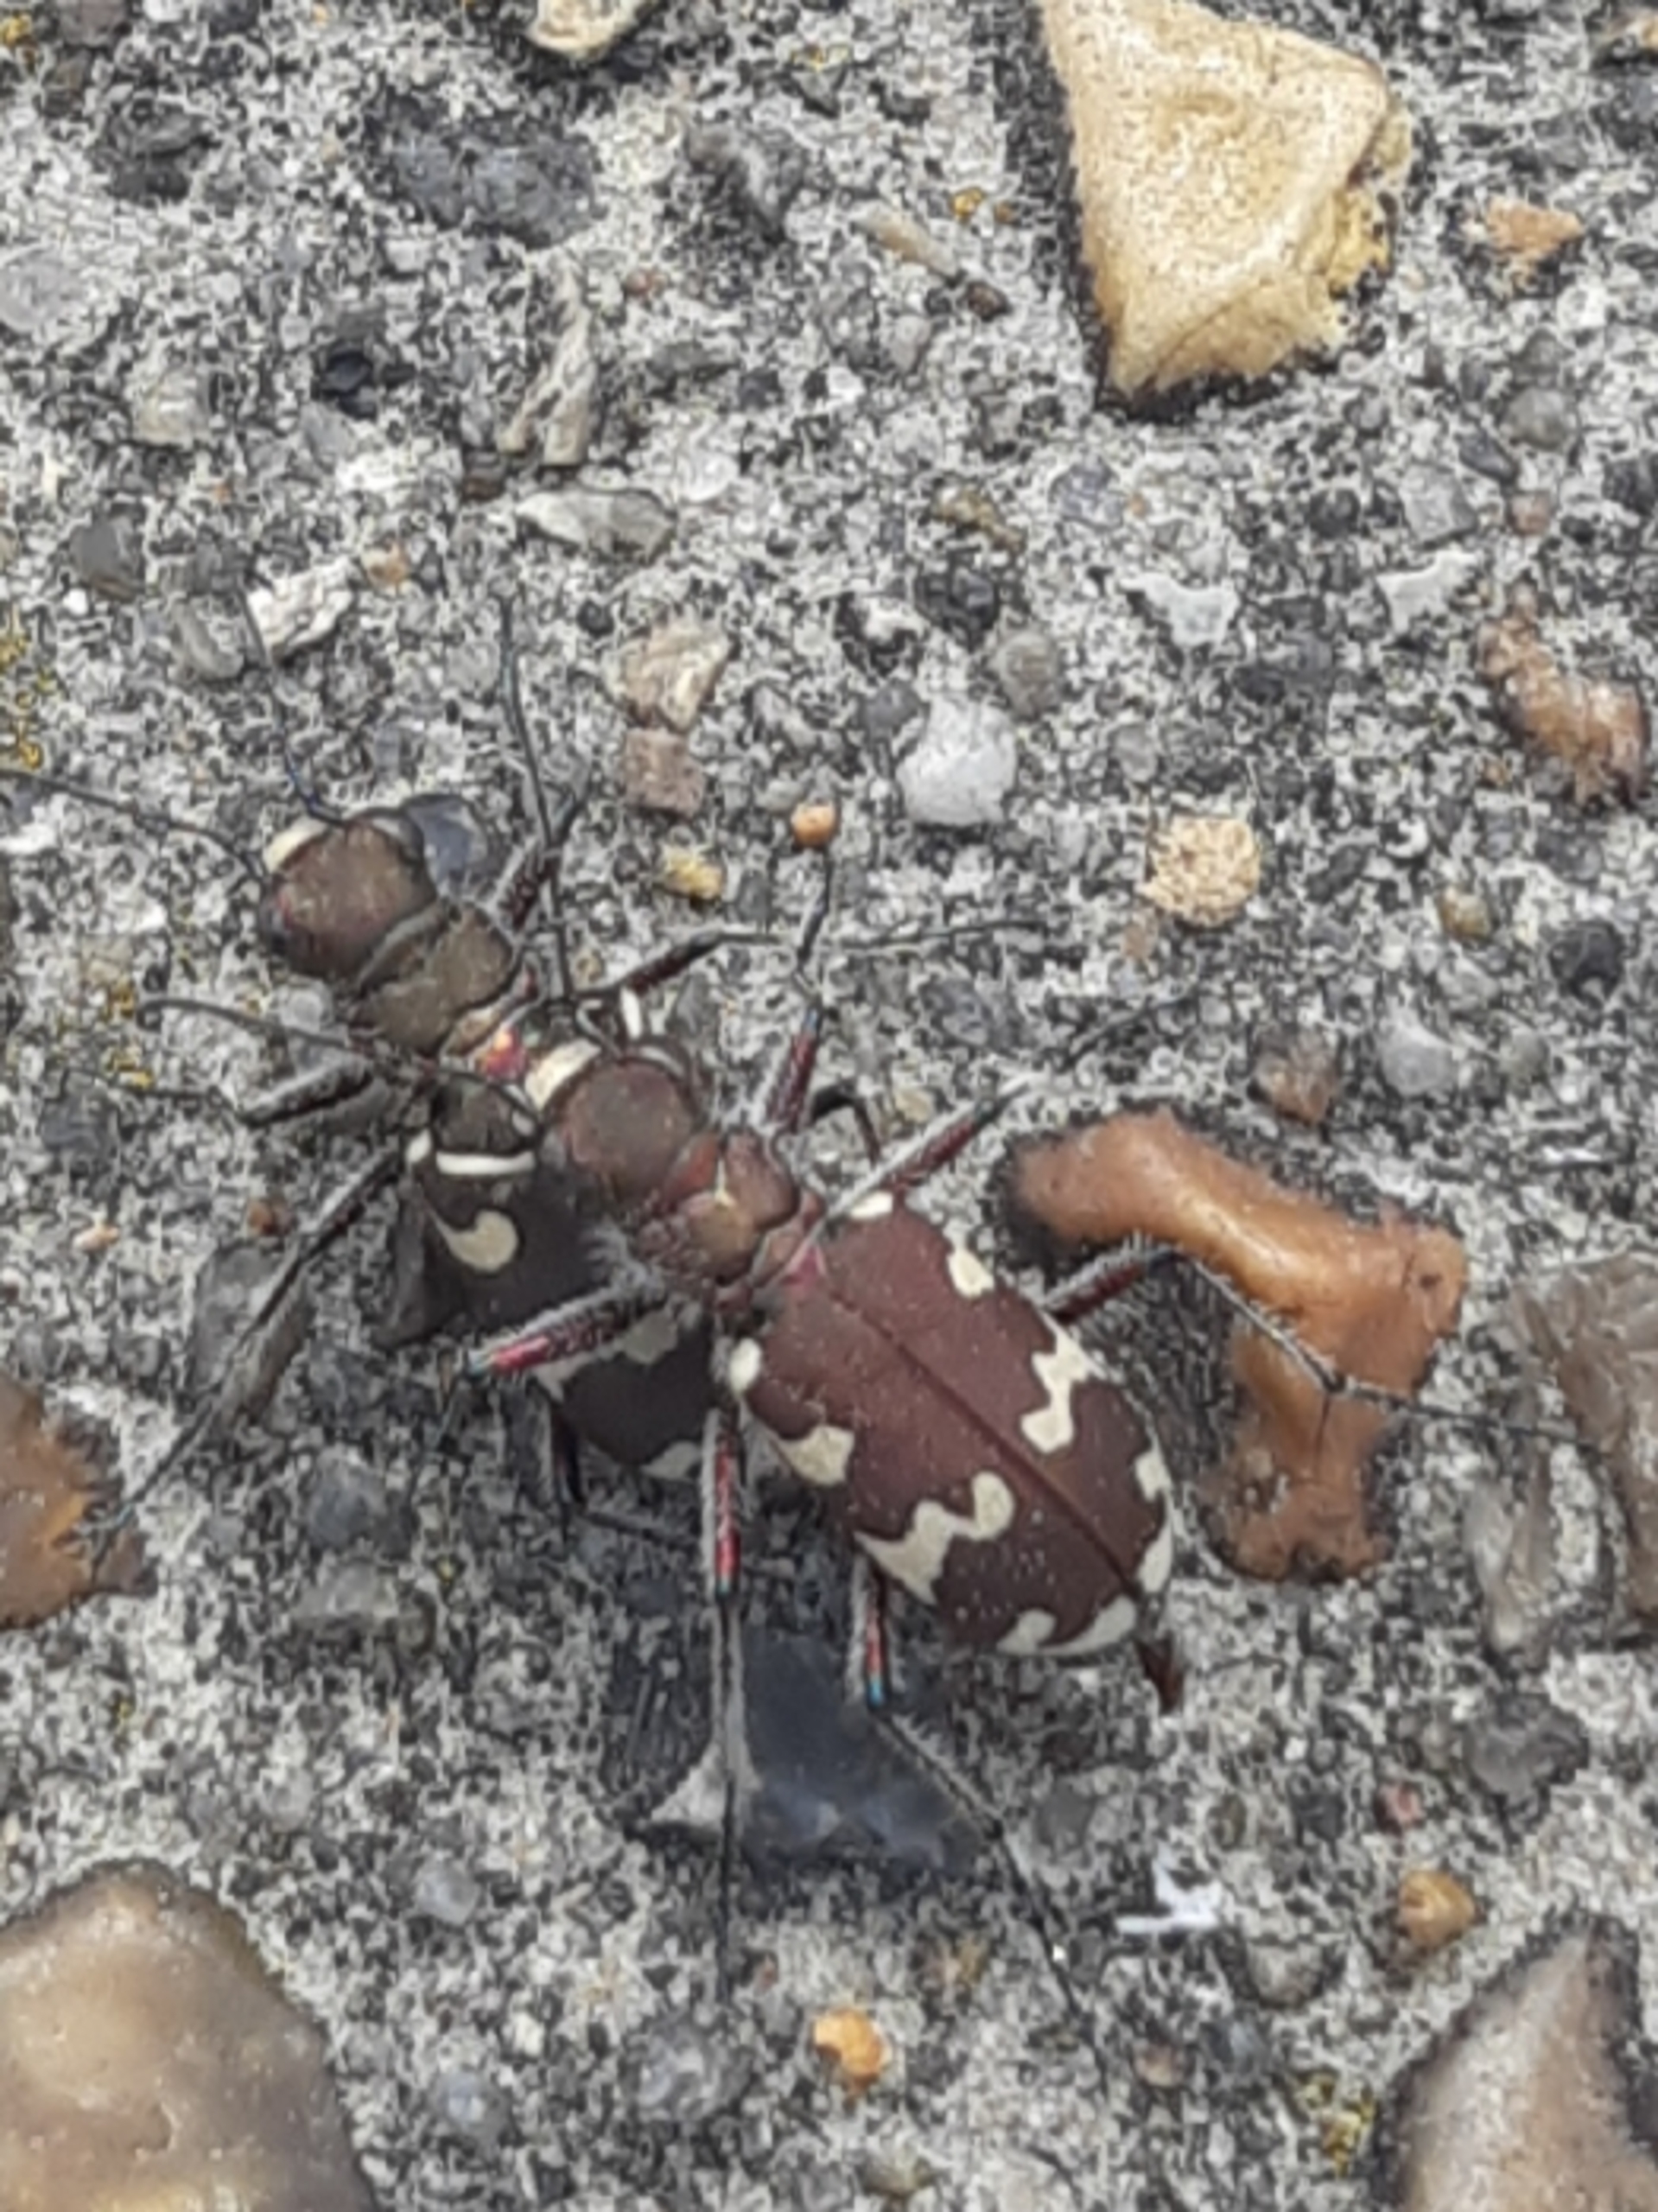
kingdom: Animalia
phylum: Arthropoda
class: Insecta
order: Coleoptera
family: Carabidae
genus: Cicindela
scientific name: Cicindela hybrida
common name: Brun sandspringer
